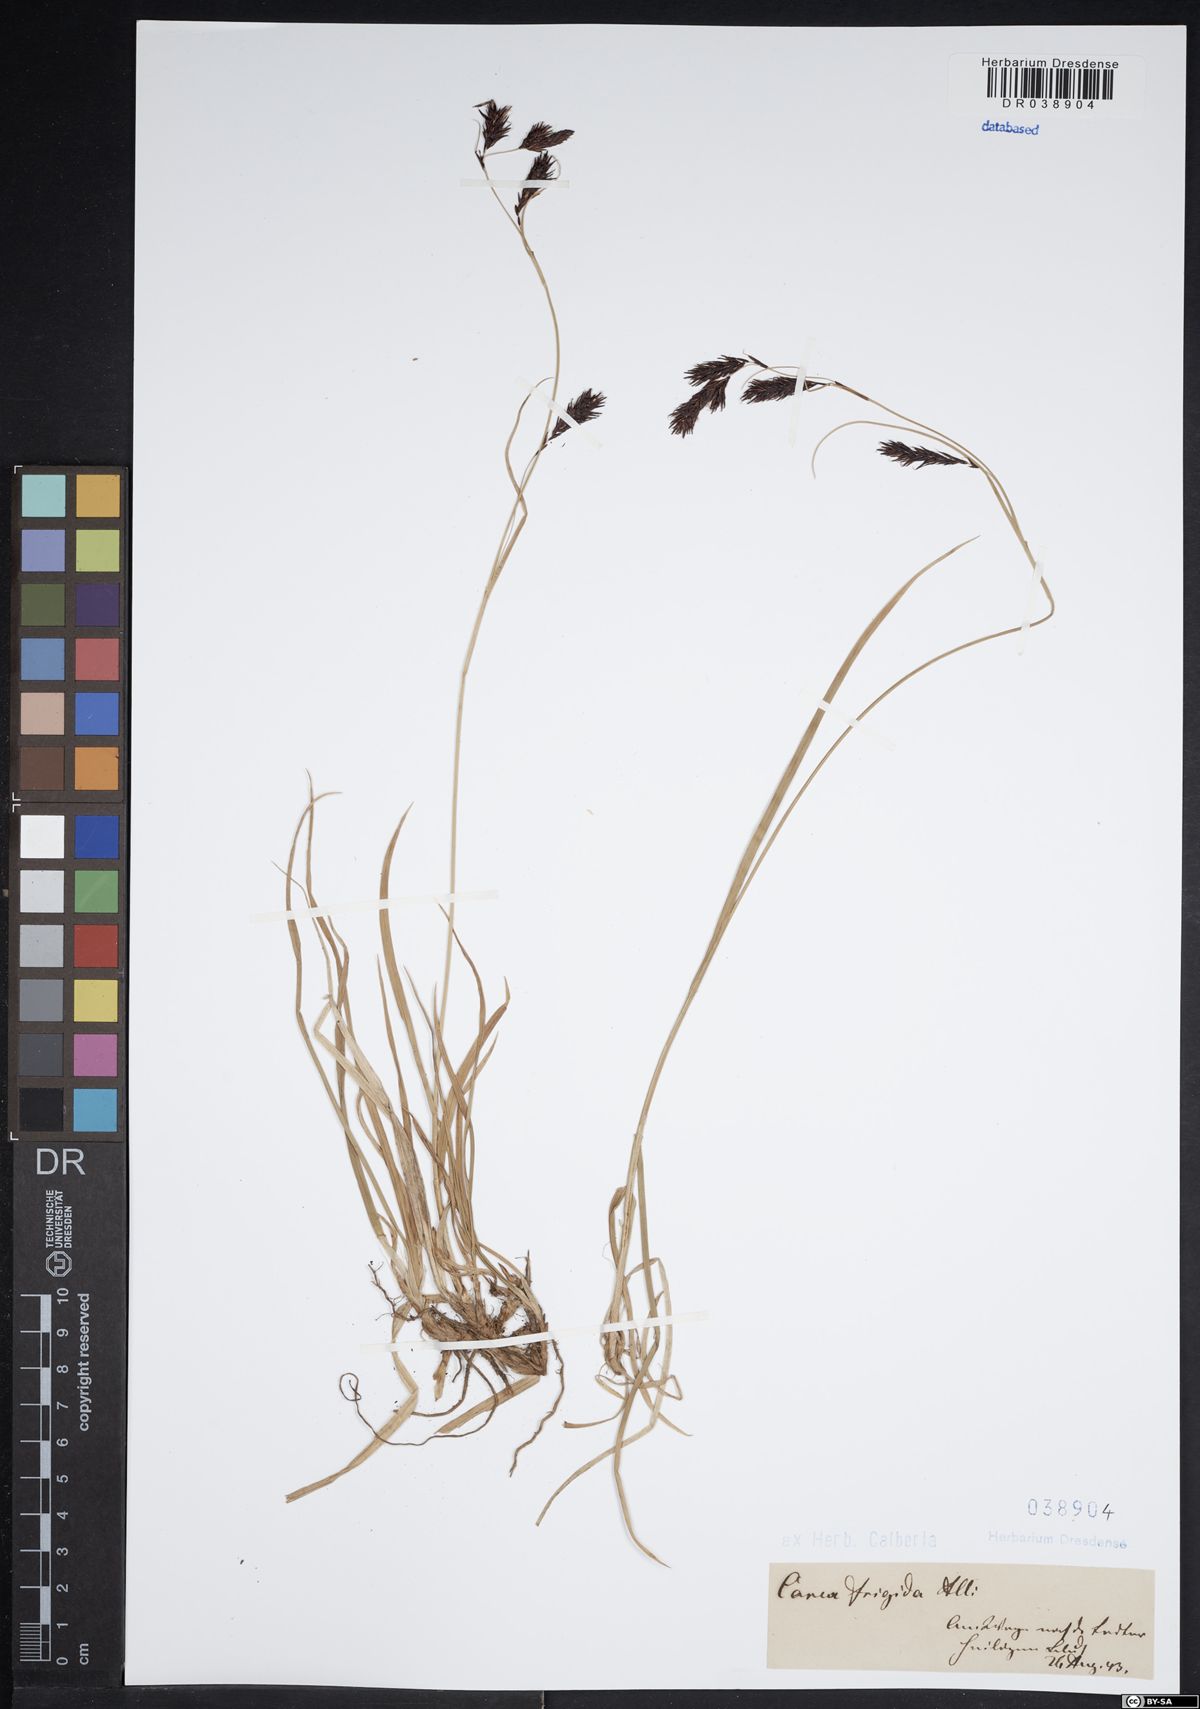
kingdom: Plantae
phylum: Tracheophyta
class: Liliopsida
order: Poales
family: Cyperaceae
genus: Carex
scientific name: Carex frigida
